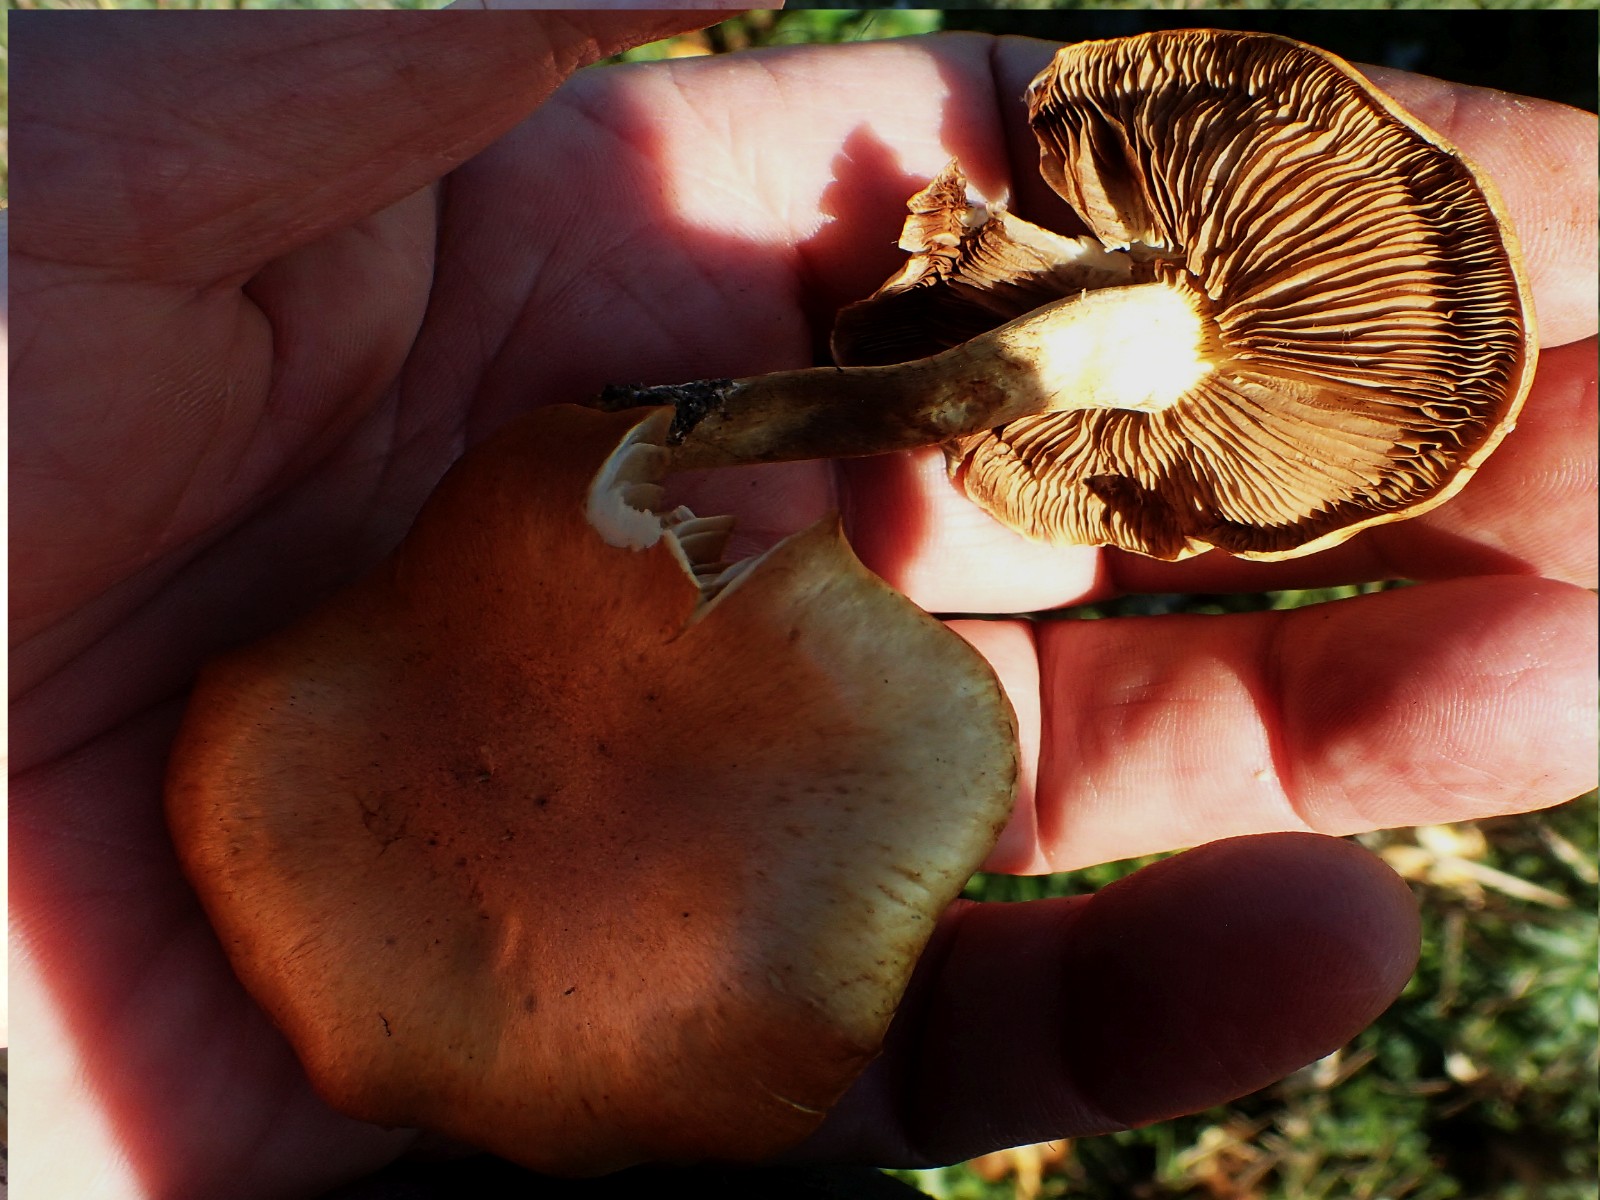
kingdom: Fungi
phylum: Basidiomycota
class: Agaricomycetes
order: Agaricales
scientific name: Agaricales
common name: champignonordenen
